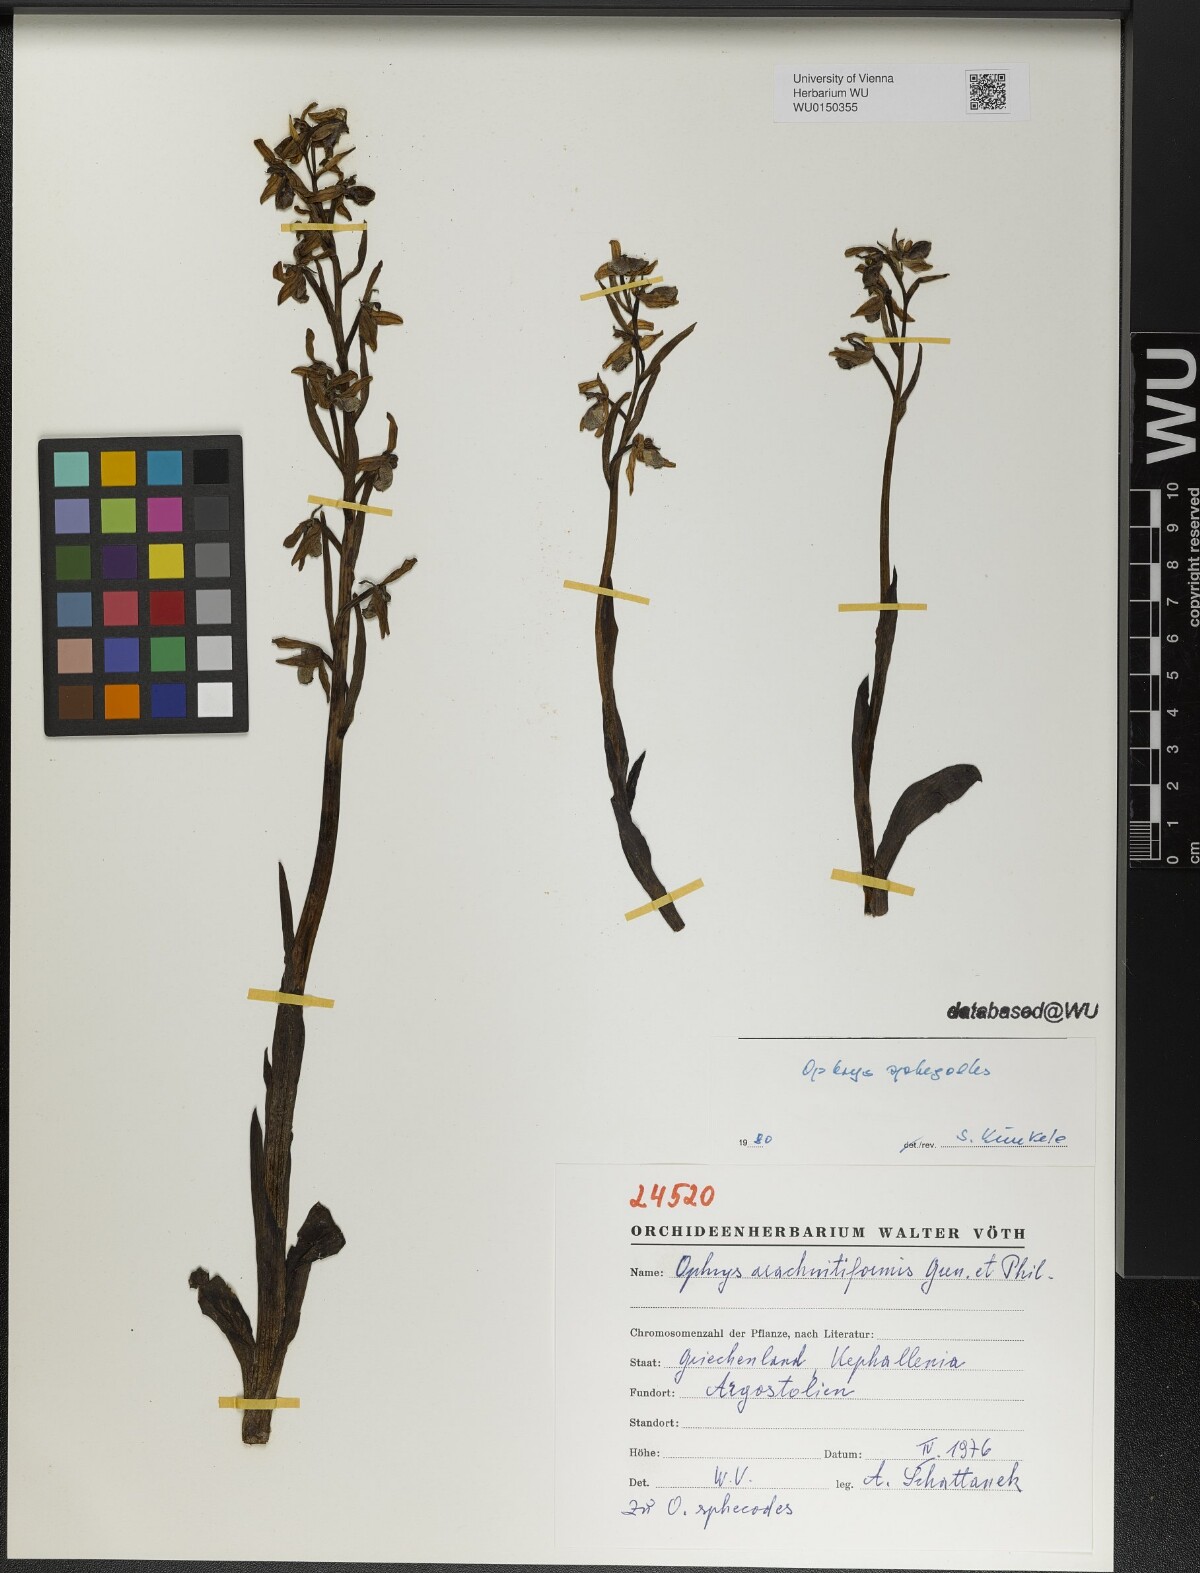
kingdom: Plantae
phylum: Tracheophyta
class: Liliopsida
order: Asparagales
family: Orchidaceae
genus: Ophrys
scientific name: Ophrys sphegodes
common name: Early spider-orchid
